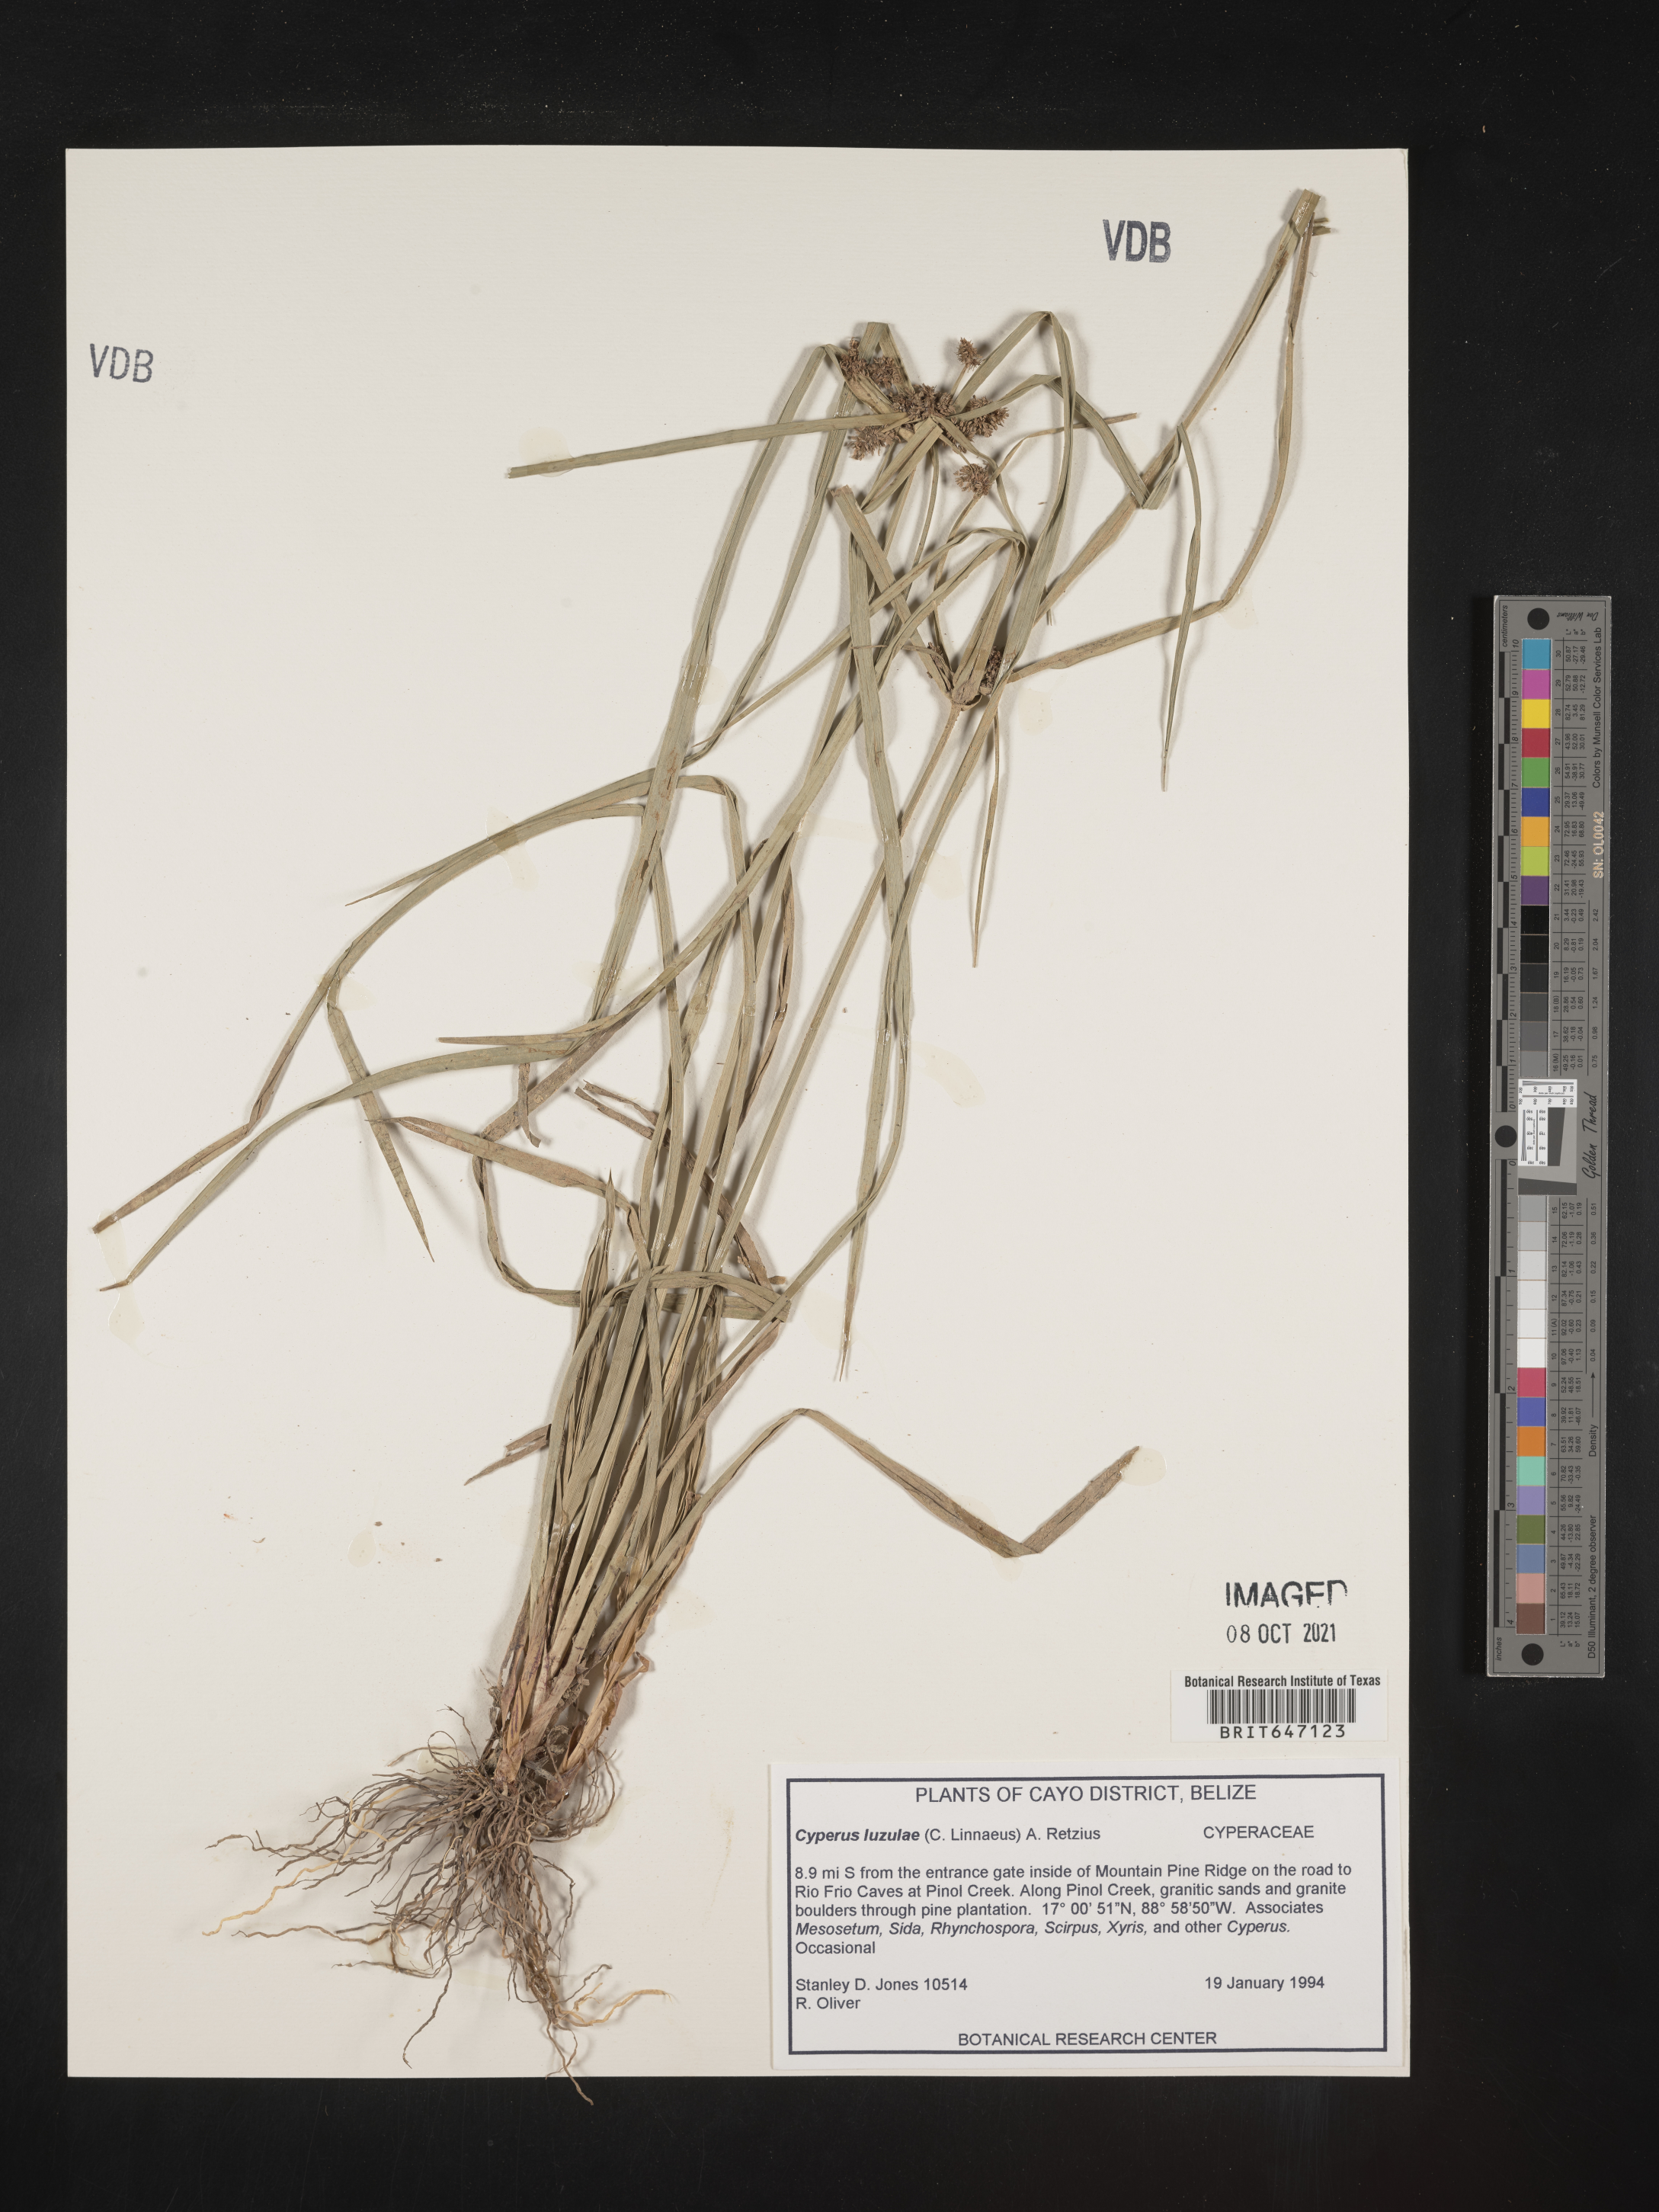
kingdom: Plantae
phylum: Tracheophyta
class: Liliopsida
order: Poales
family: Cyperaceae
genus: Cyperus
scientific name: Cyperus luzulae
